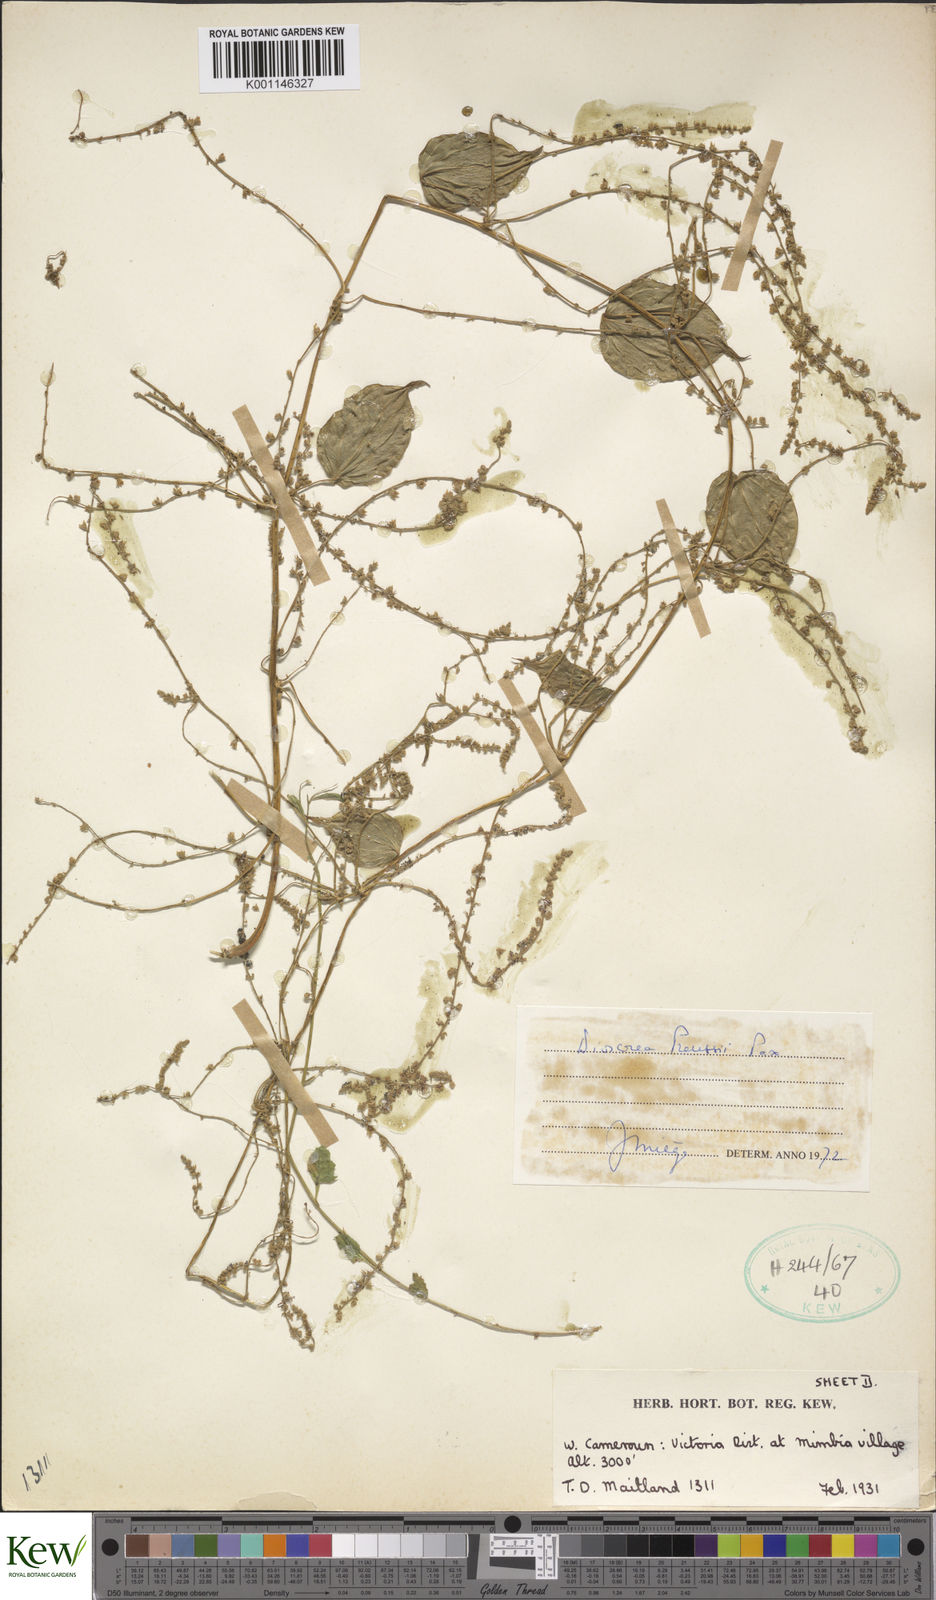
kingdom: Plantae
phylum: Tracheophyta
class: Liliopsida
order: Dioscoreales
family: Dioscoreaceae
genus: Dioscorea
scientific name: Dioscorea preussii
